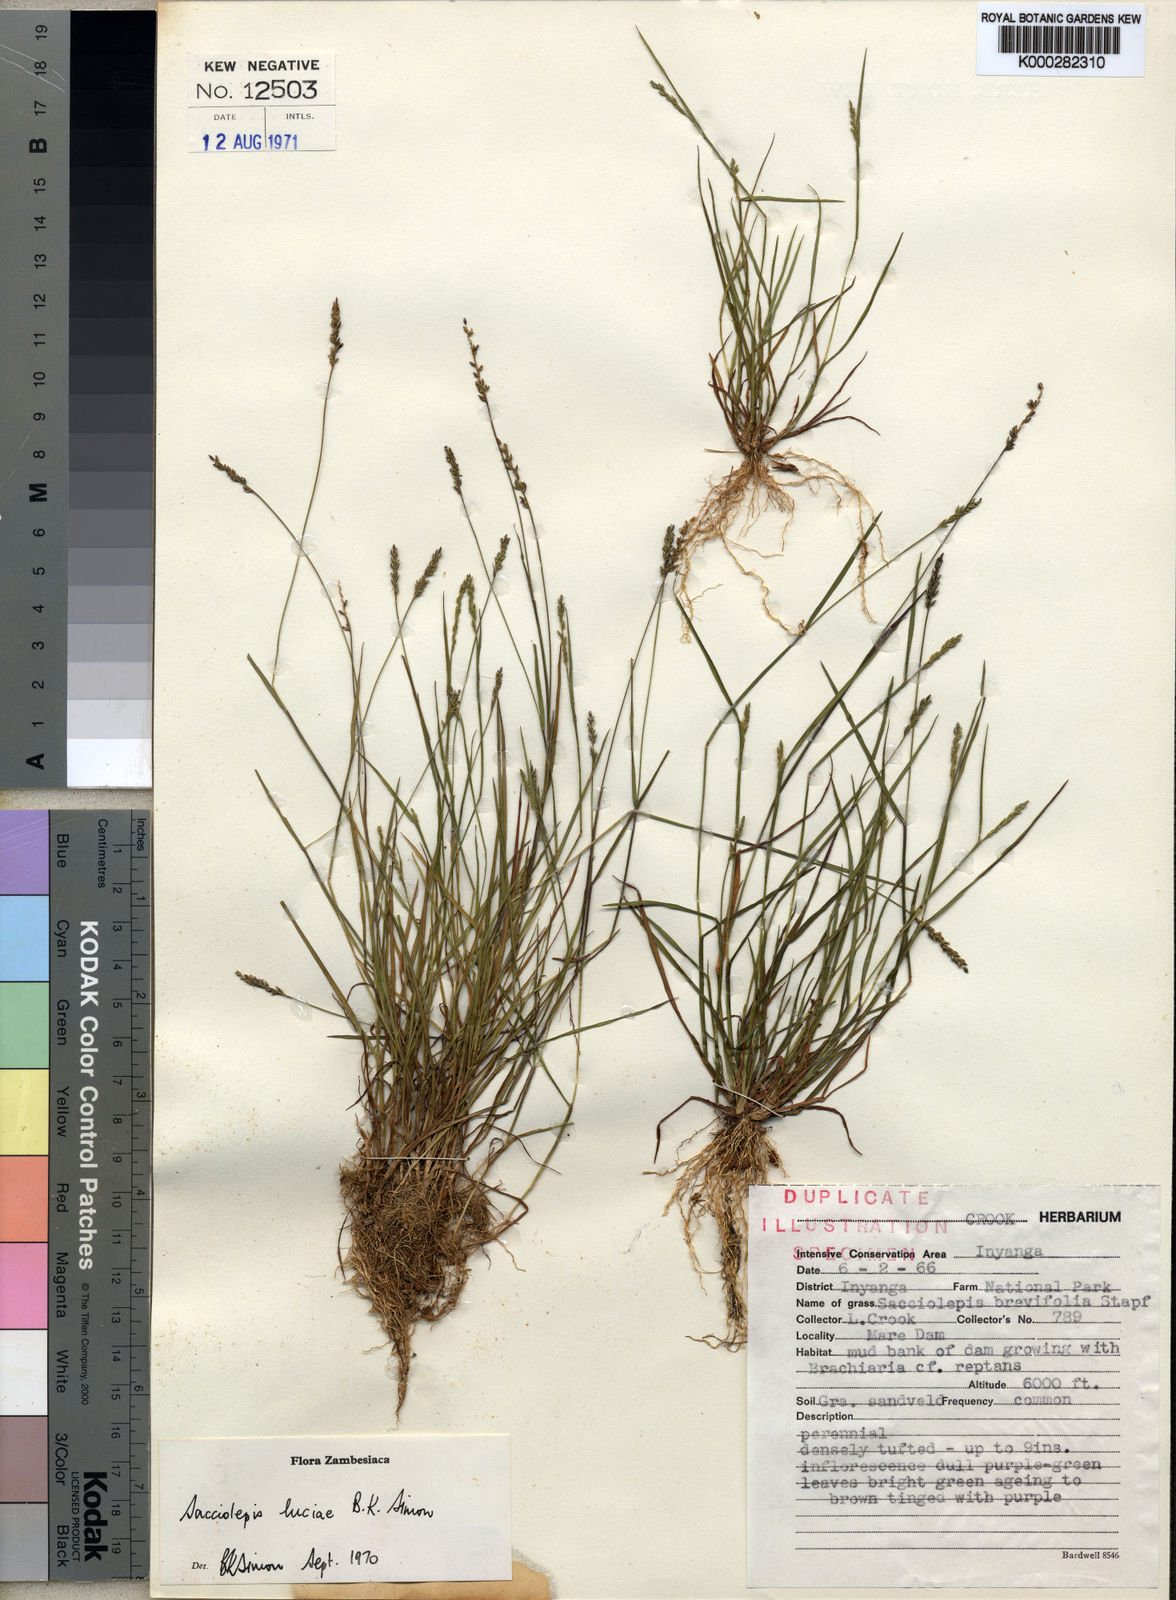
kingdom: Plantae
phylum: Tracheophyta
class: Liliopsida
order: Poales
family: Poaceae
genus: Sacciolepis
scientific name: Sacciolepis myosuroides
